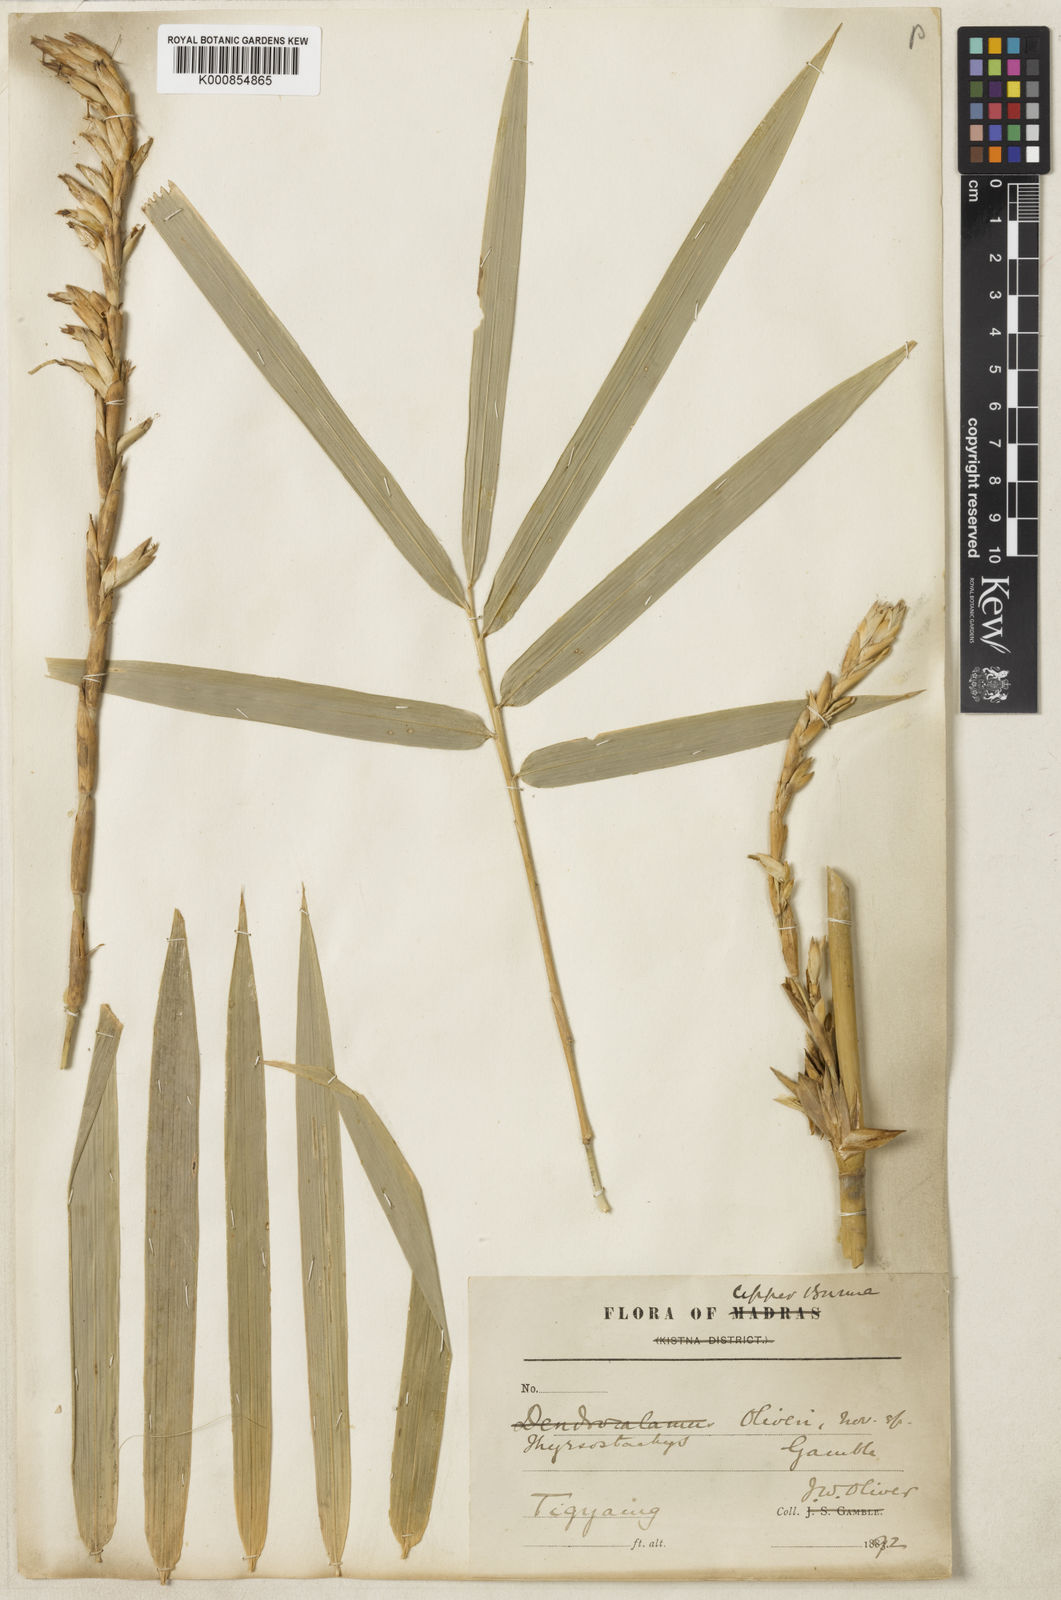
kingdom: Plantae
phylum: Tracheophyta
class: Liliopsida
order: Poales
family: Poaceae
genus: Thyrsostachys
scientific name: Thyrsostachys oliveri
